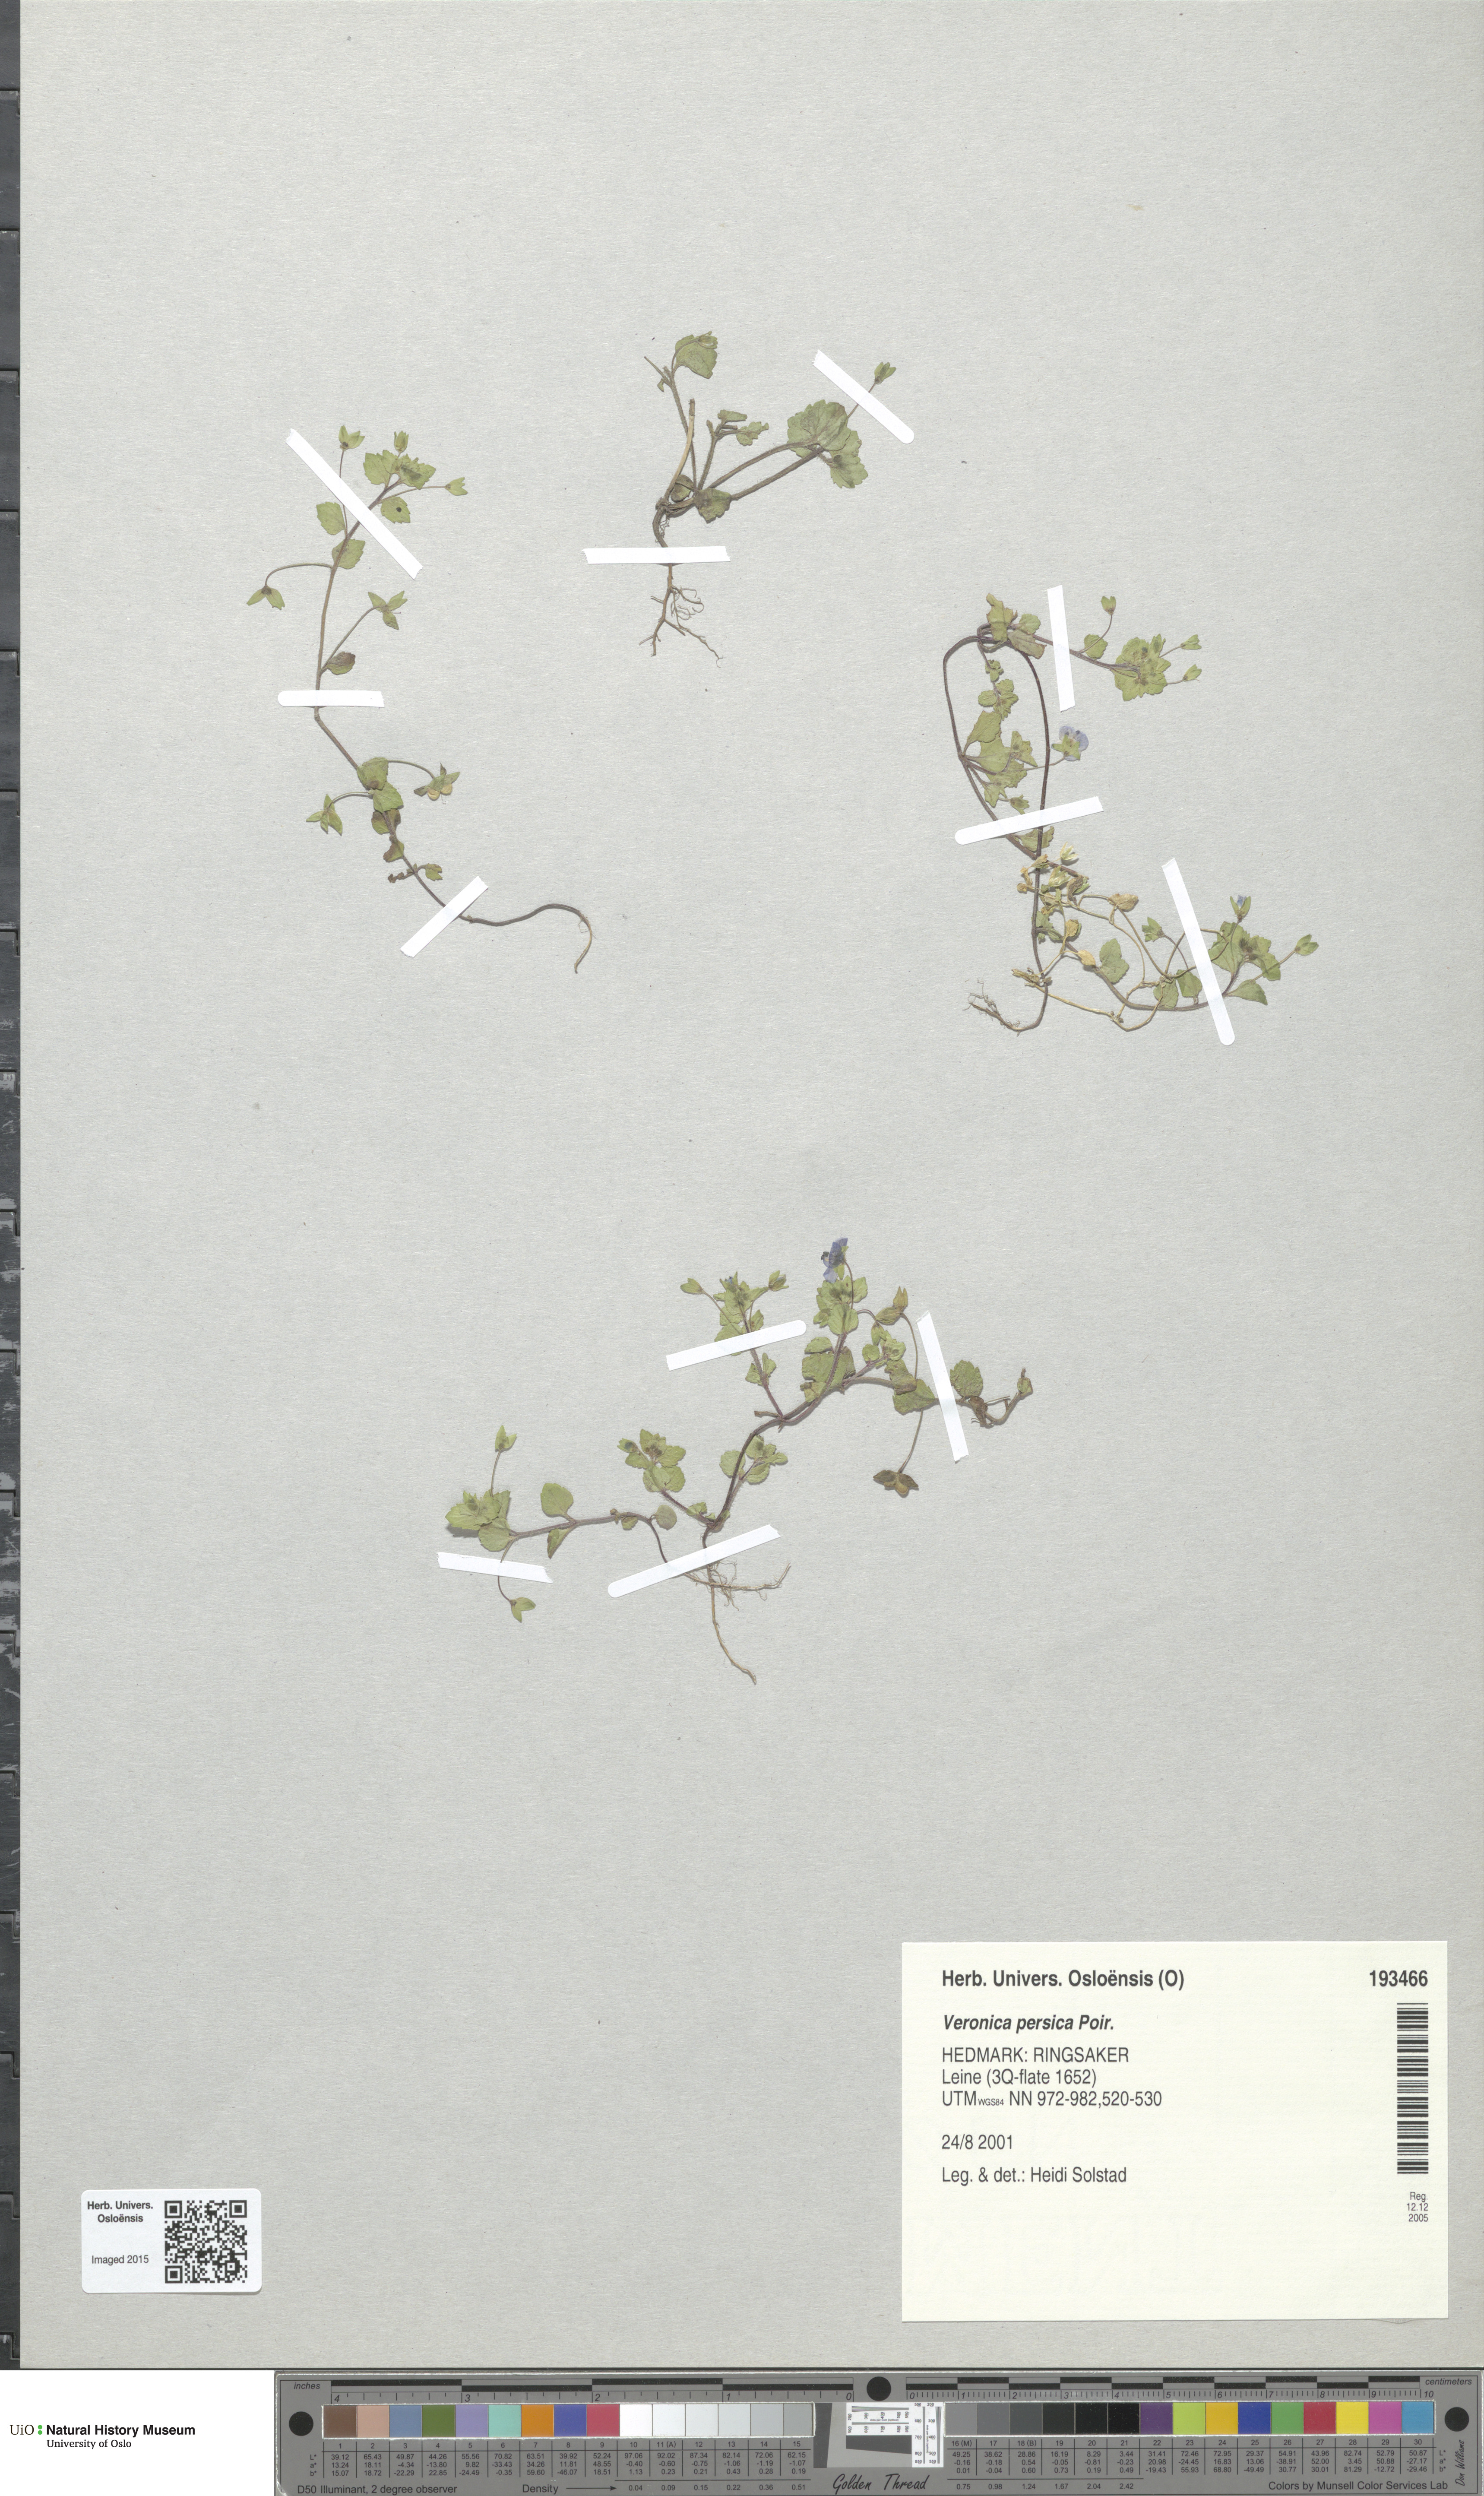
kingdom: Plantae
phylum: Tracheophyta
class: Magnoliopsida
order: Lamiales
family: Plantaginaceae
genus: Veronica
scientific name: Veronica persica
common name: Common field-speedwell
